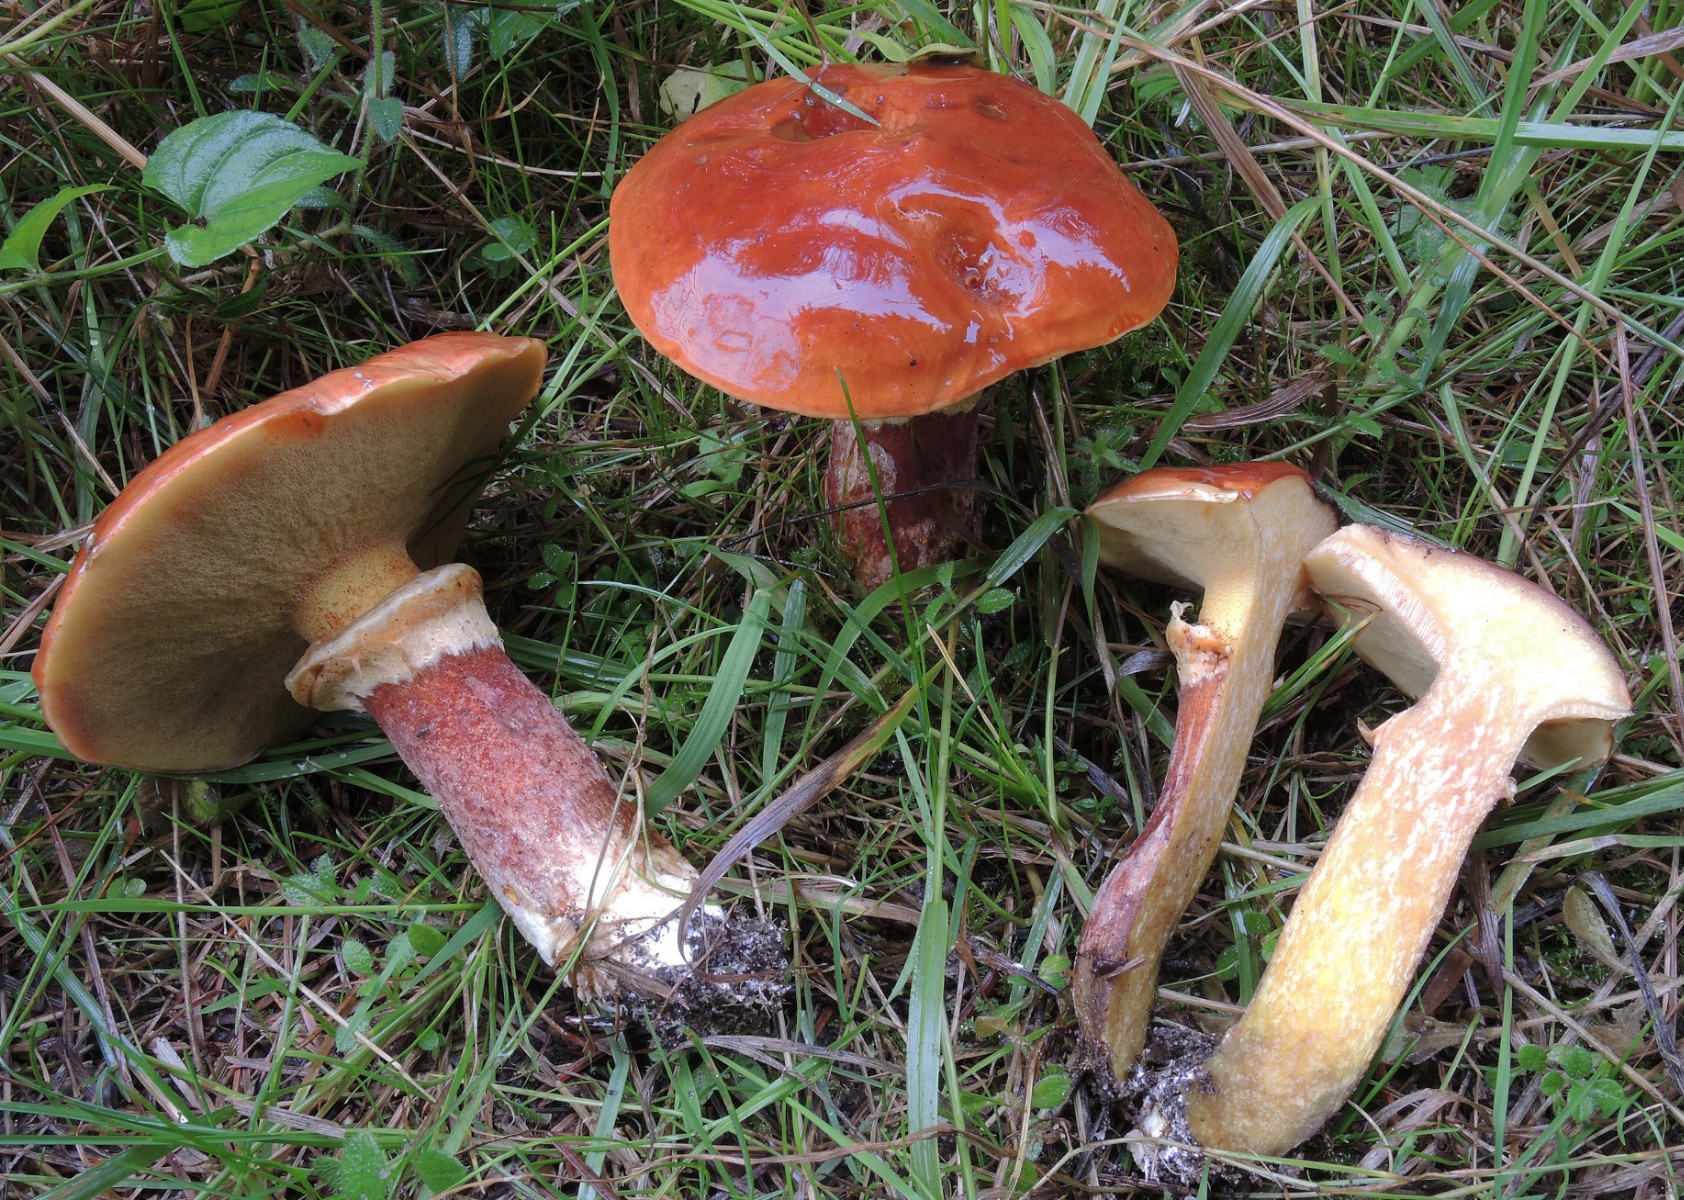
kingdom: Fungi
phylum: Basidiomycota
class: Agaricomycetes
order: Boletales
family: Suillaceae
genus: Suillus
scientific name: Suillus grevillei
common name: Larch bolete
